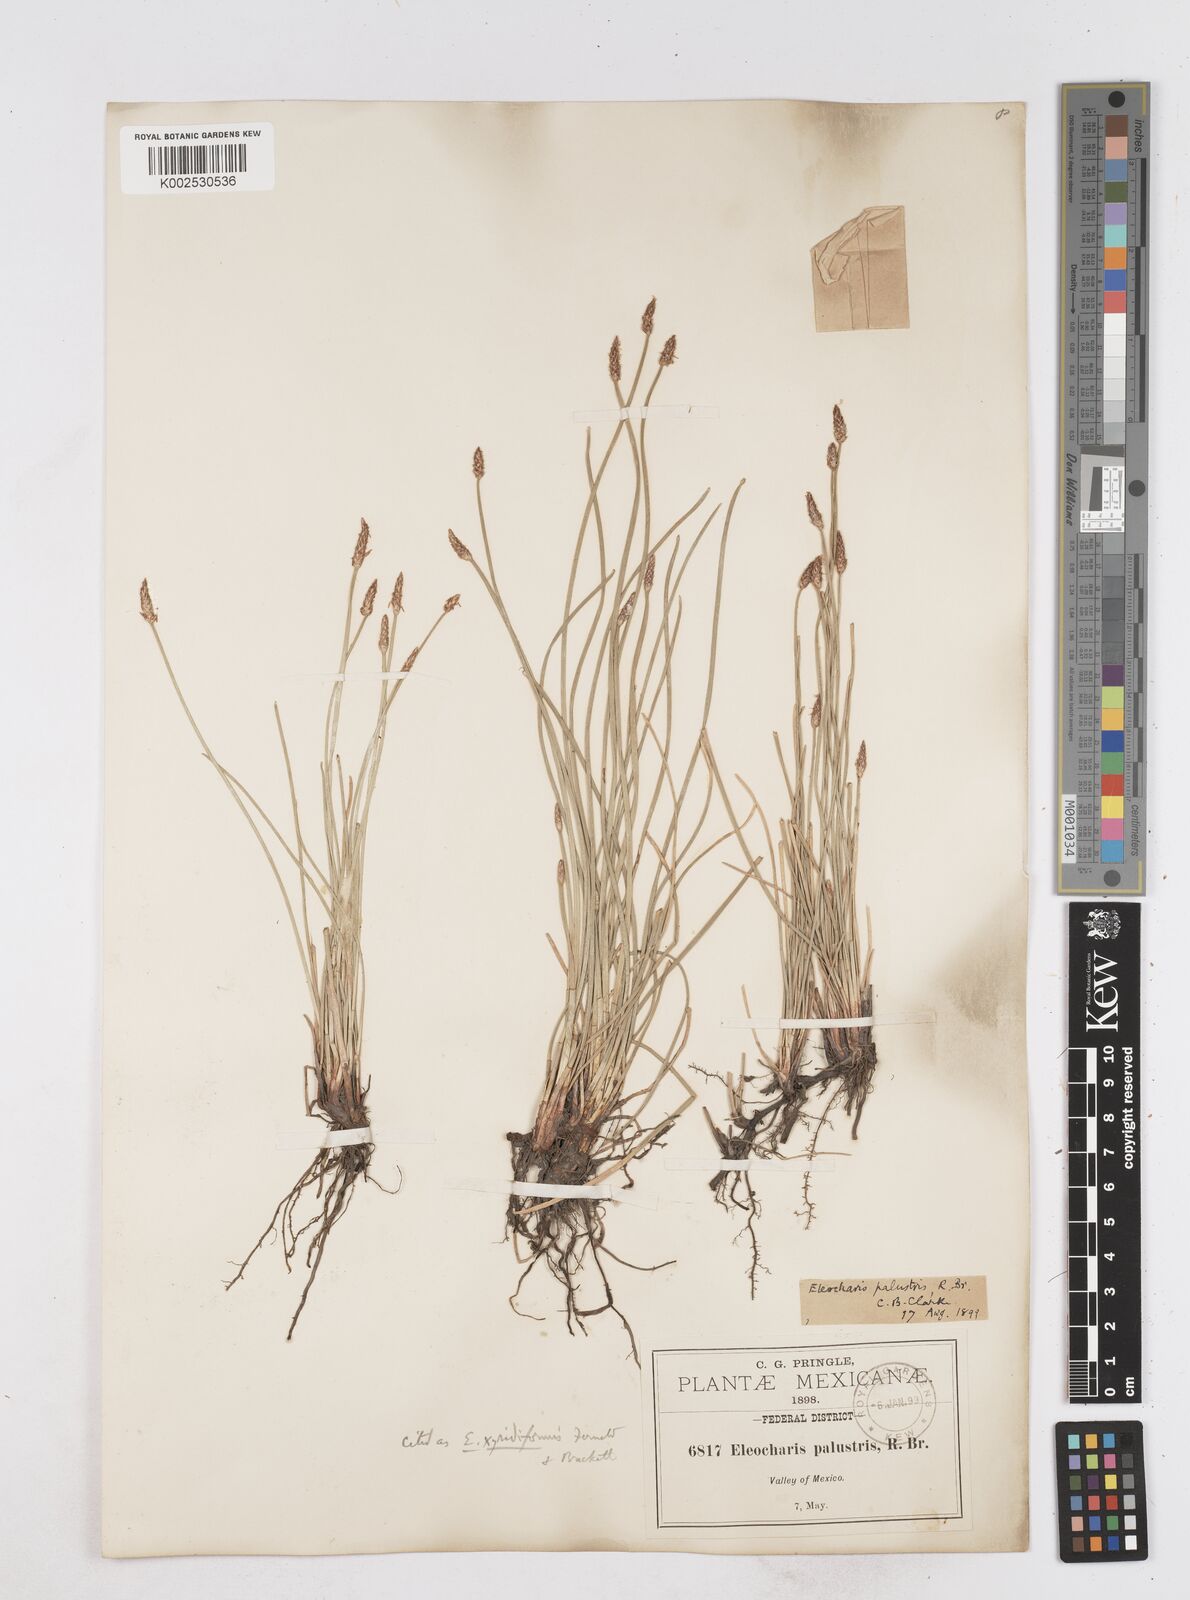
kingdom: Plantae
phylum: Tracheophyta
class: Liliopsida
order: Poales
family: Cyperaceae
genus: Eleocharis
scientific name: Eleocharis macrostachya
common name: Pale spikerush
